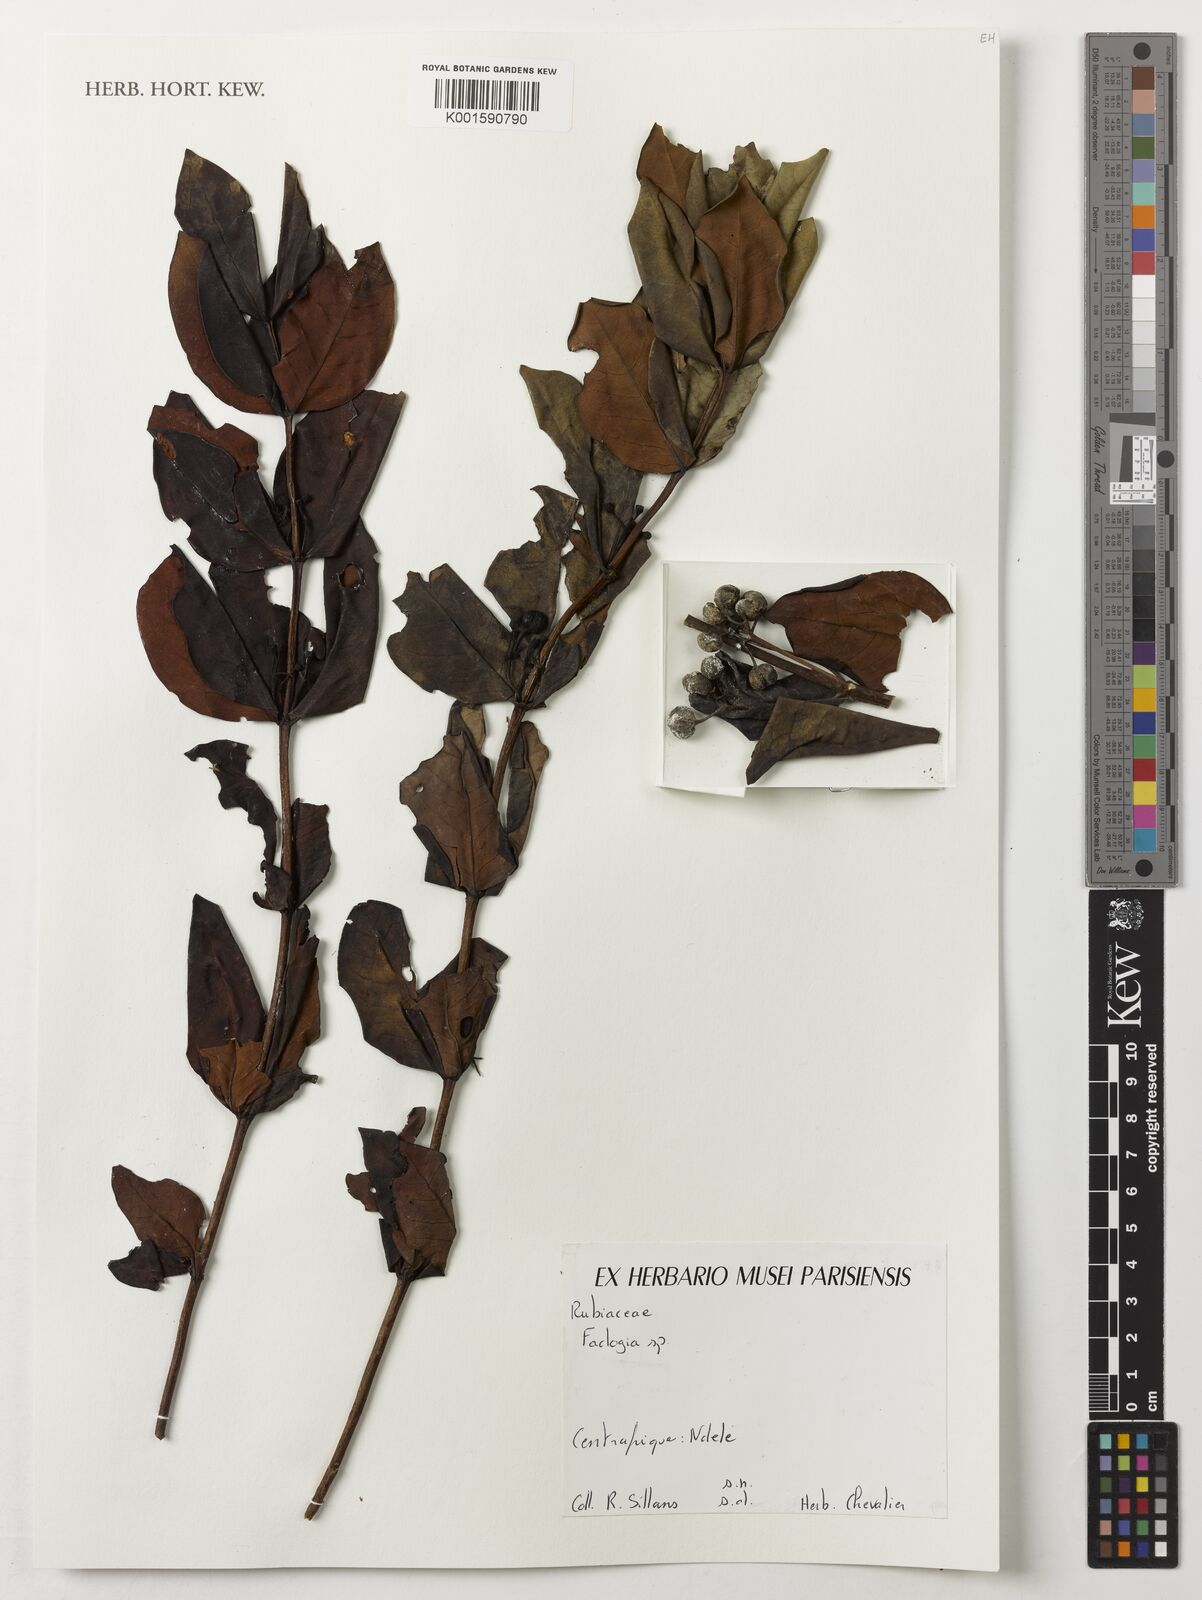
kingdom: Plantae
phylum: Tracheophyta
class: Magnoliopsida
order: Gentianales
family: Rubiaceae
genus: Fadogia
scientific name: Fadogia
